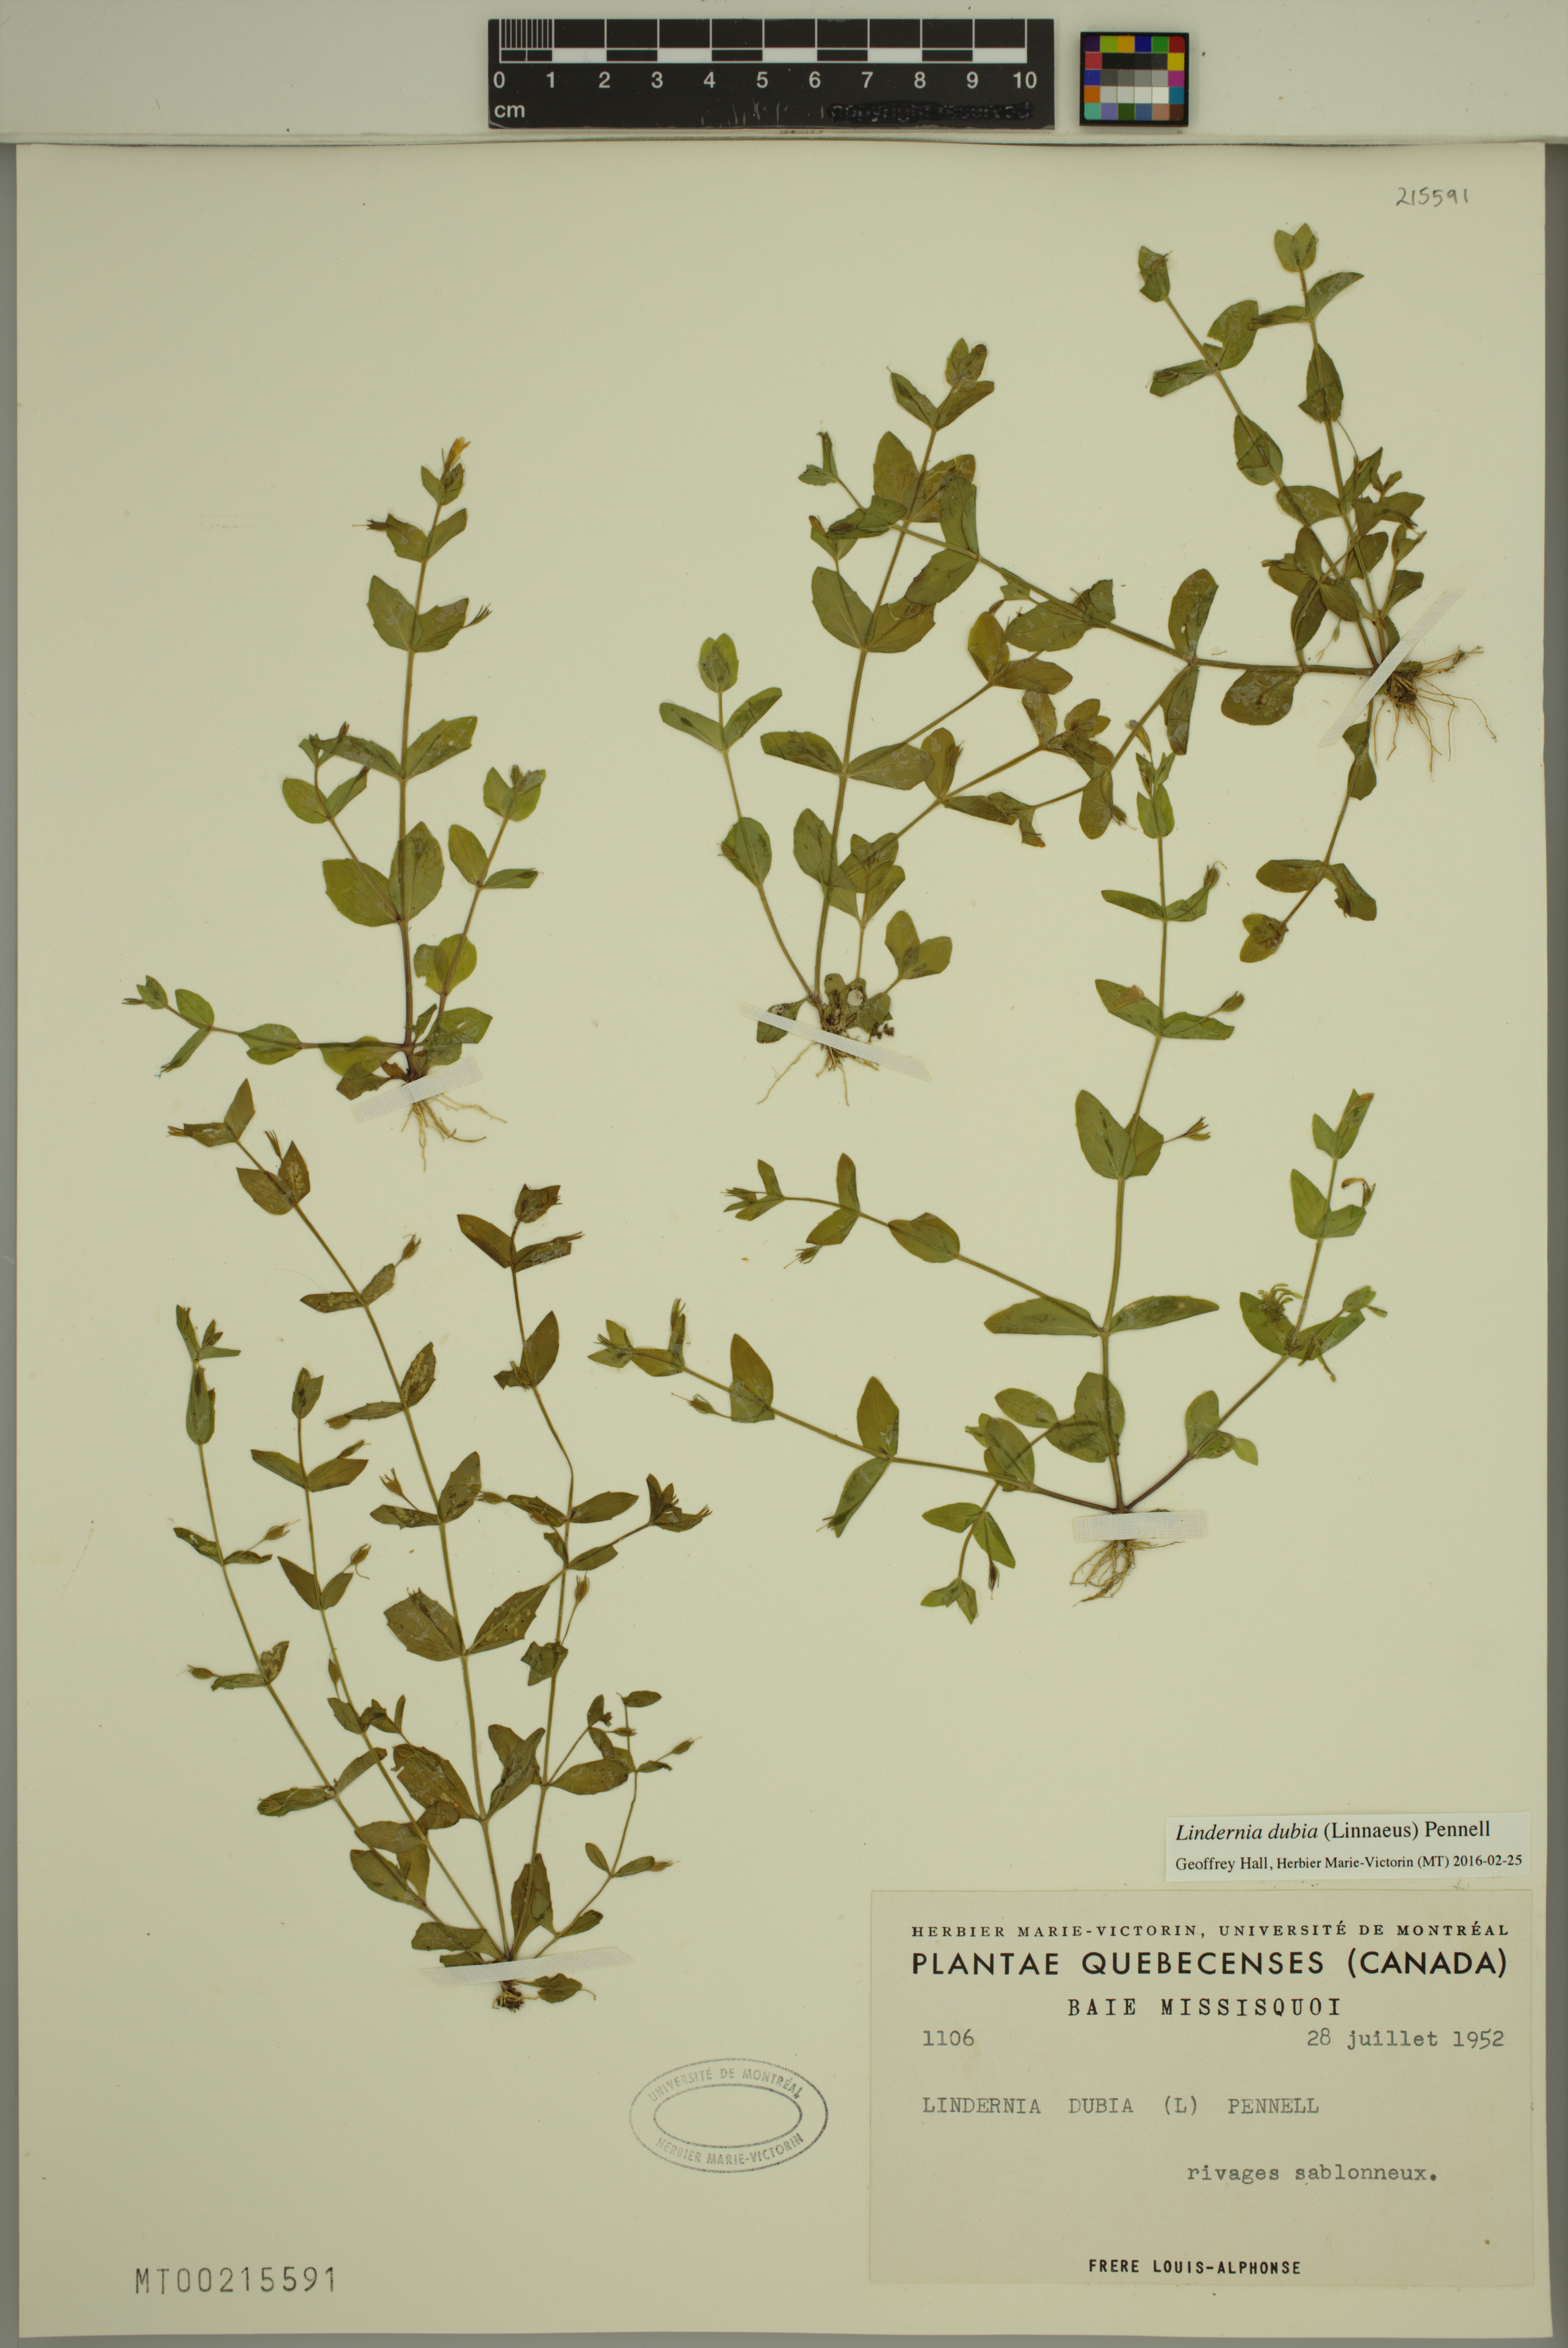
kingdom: Plantae
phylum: Tracheophyta
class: Magnoliopsida
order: Lamiales
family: Linderniaceae
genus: Lindernia
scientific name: Lindernia dubia
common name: Annual false pimpernel
